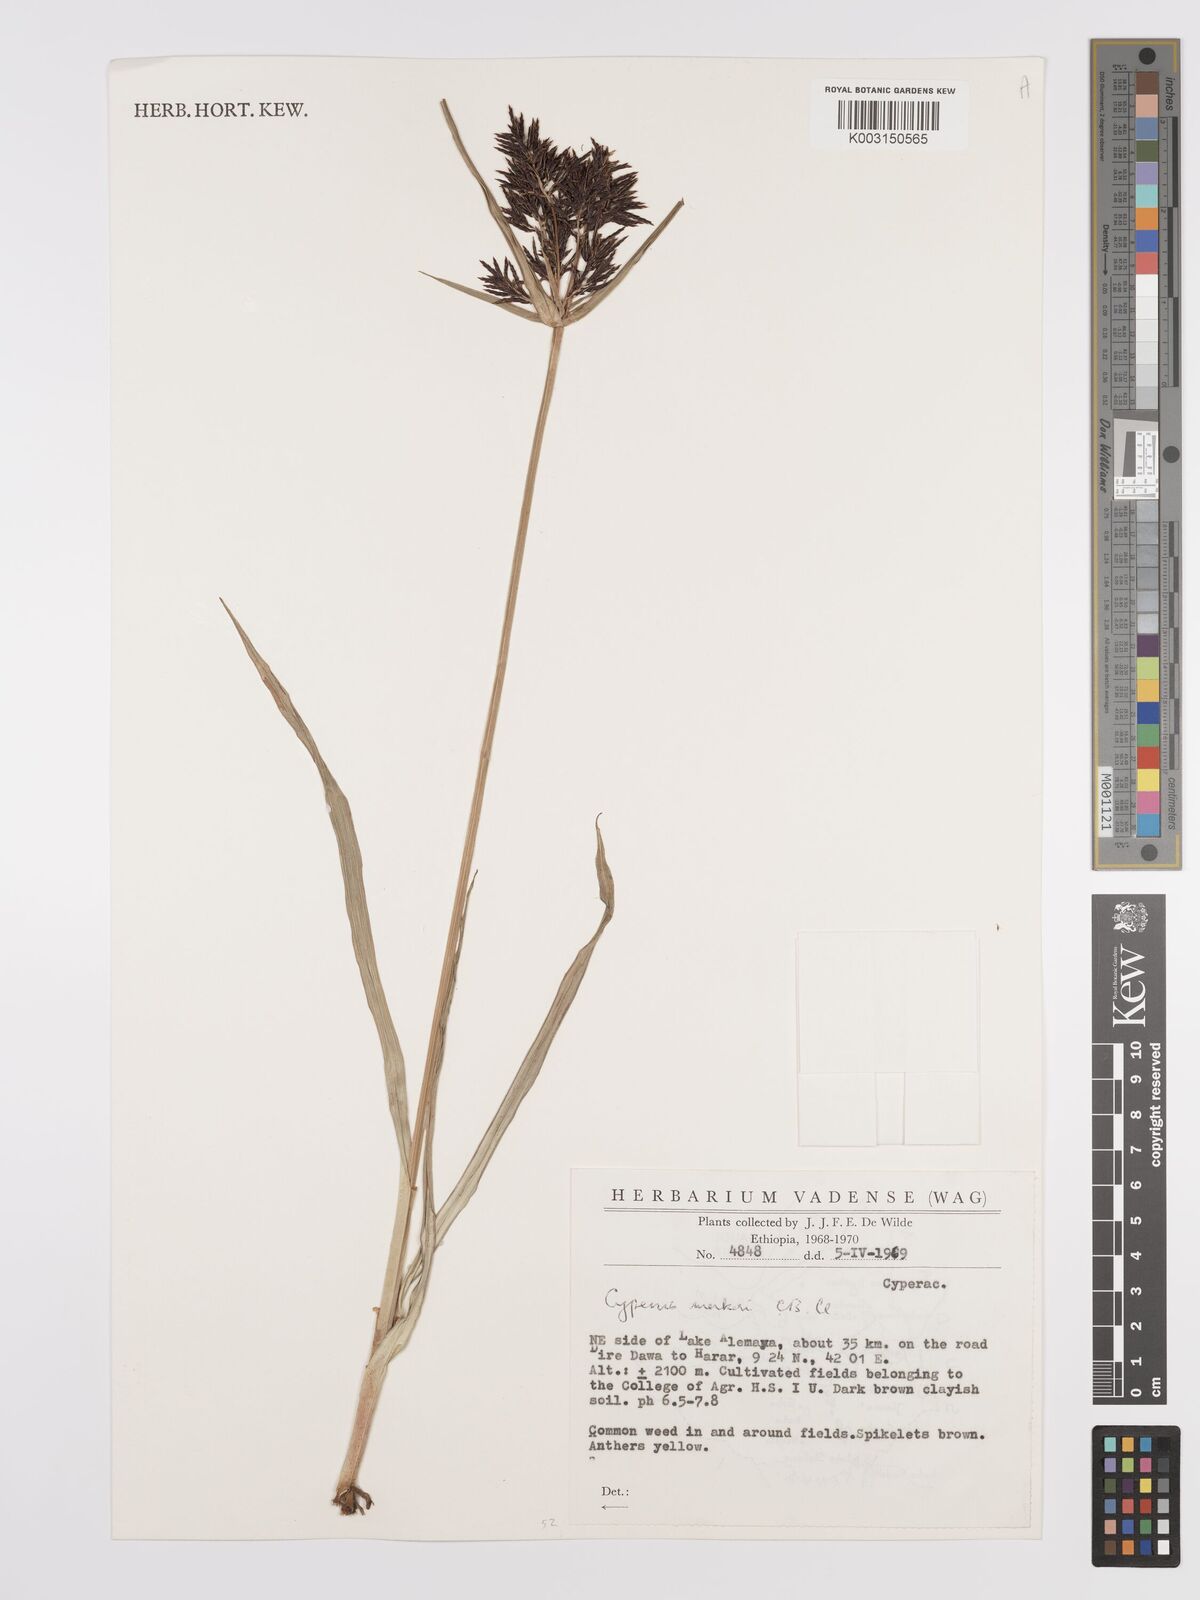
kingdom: Plantae
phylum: Tracheophyta
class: Liliopsida
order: Poales
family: Cyperaceae
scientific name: Cyperaceae
